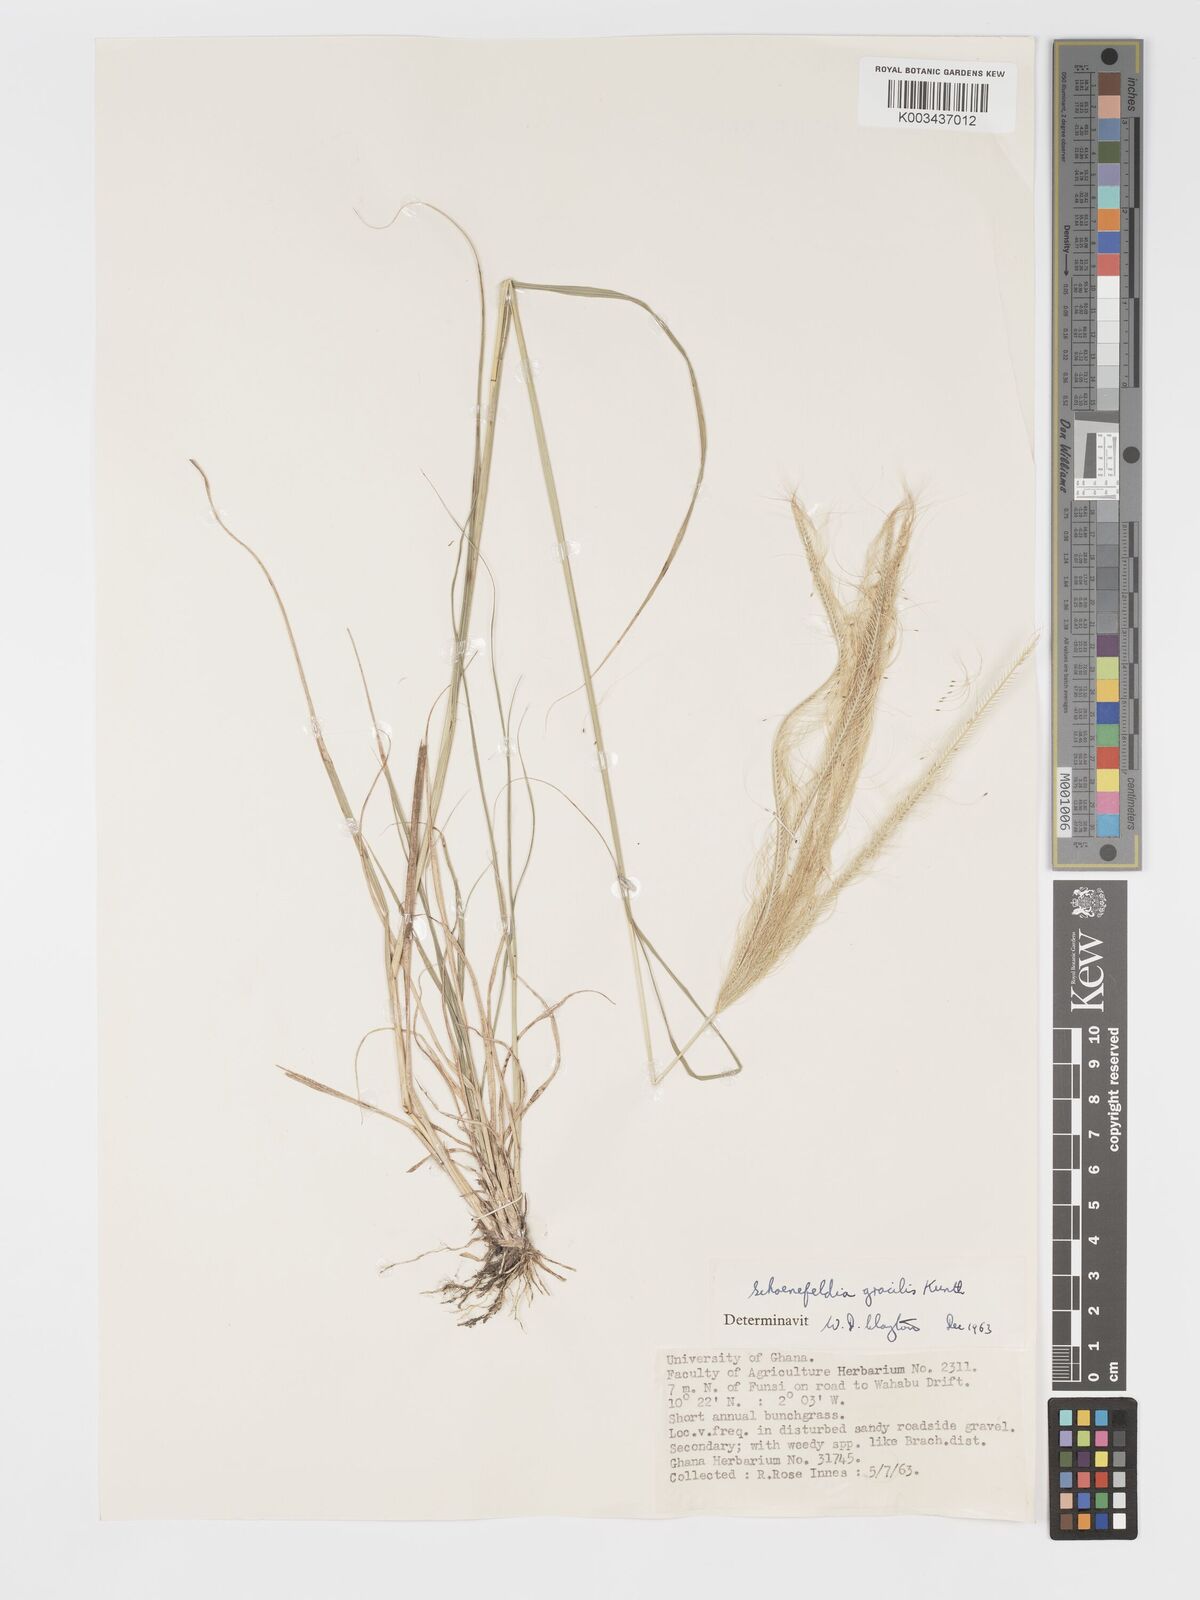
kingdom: Plantae
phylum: Tracheophyta
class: Liliopsida
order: Poales
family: Poaceae
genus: Schoenefeldia
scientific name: Schoenefeldia gracilis
